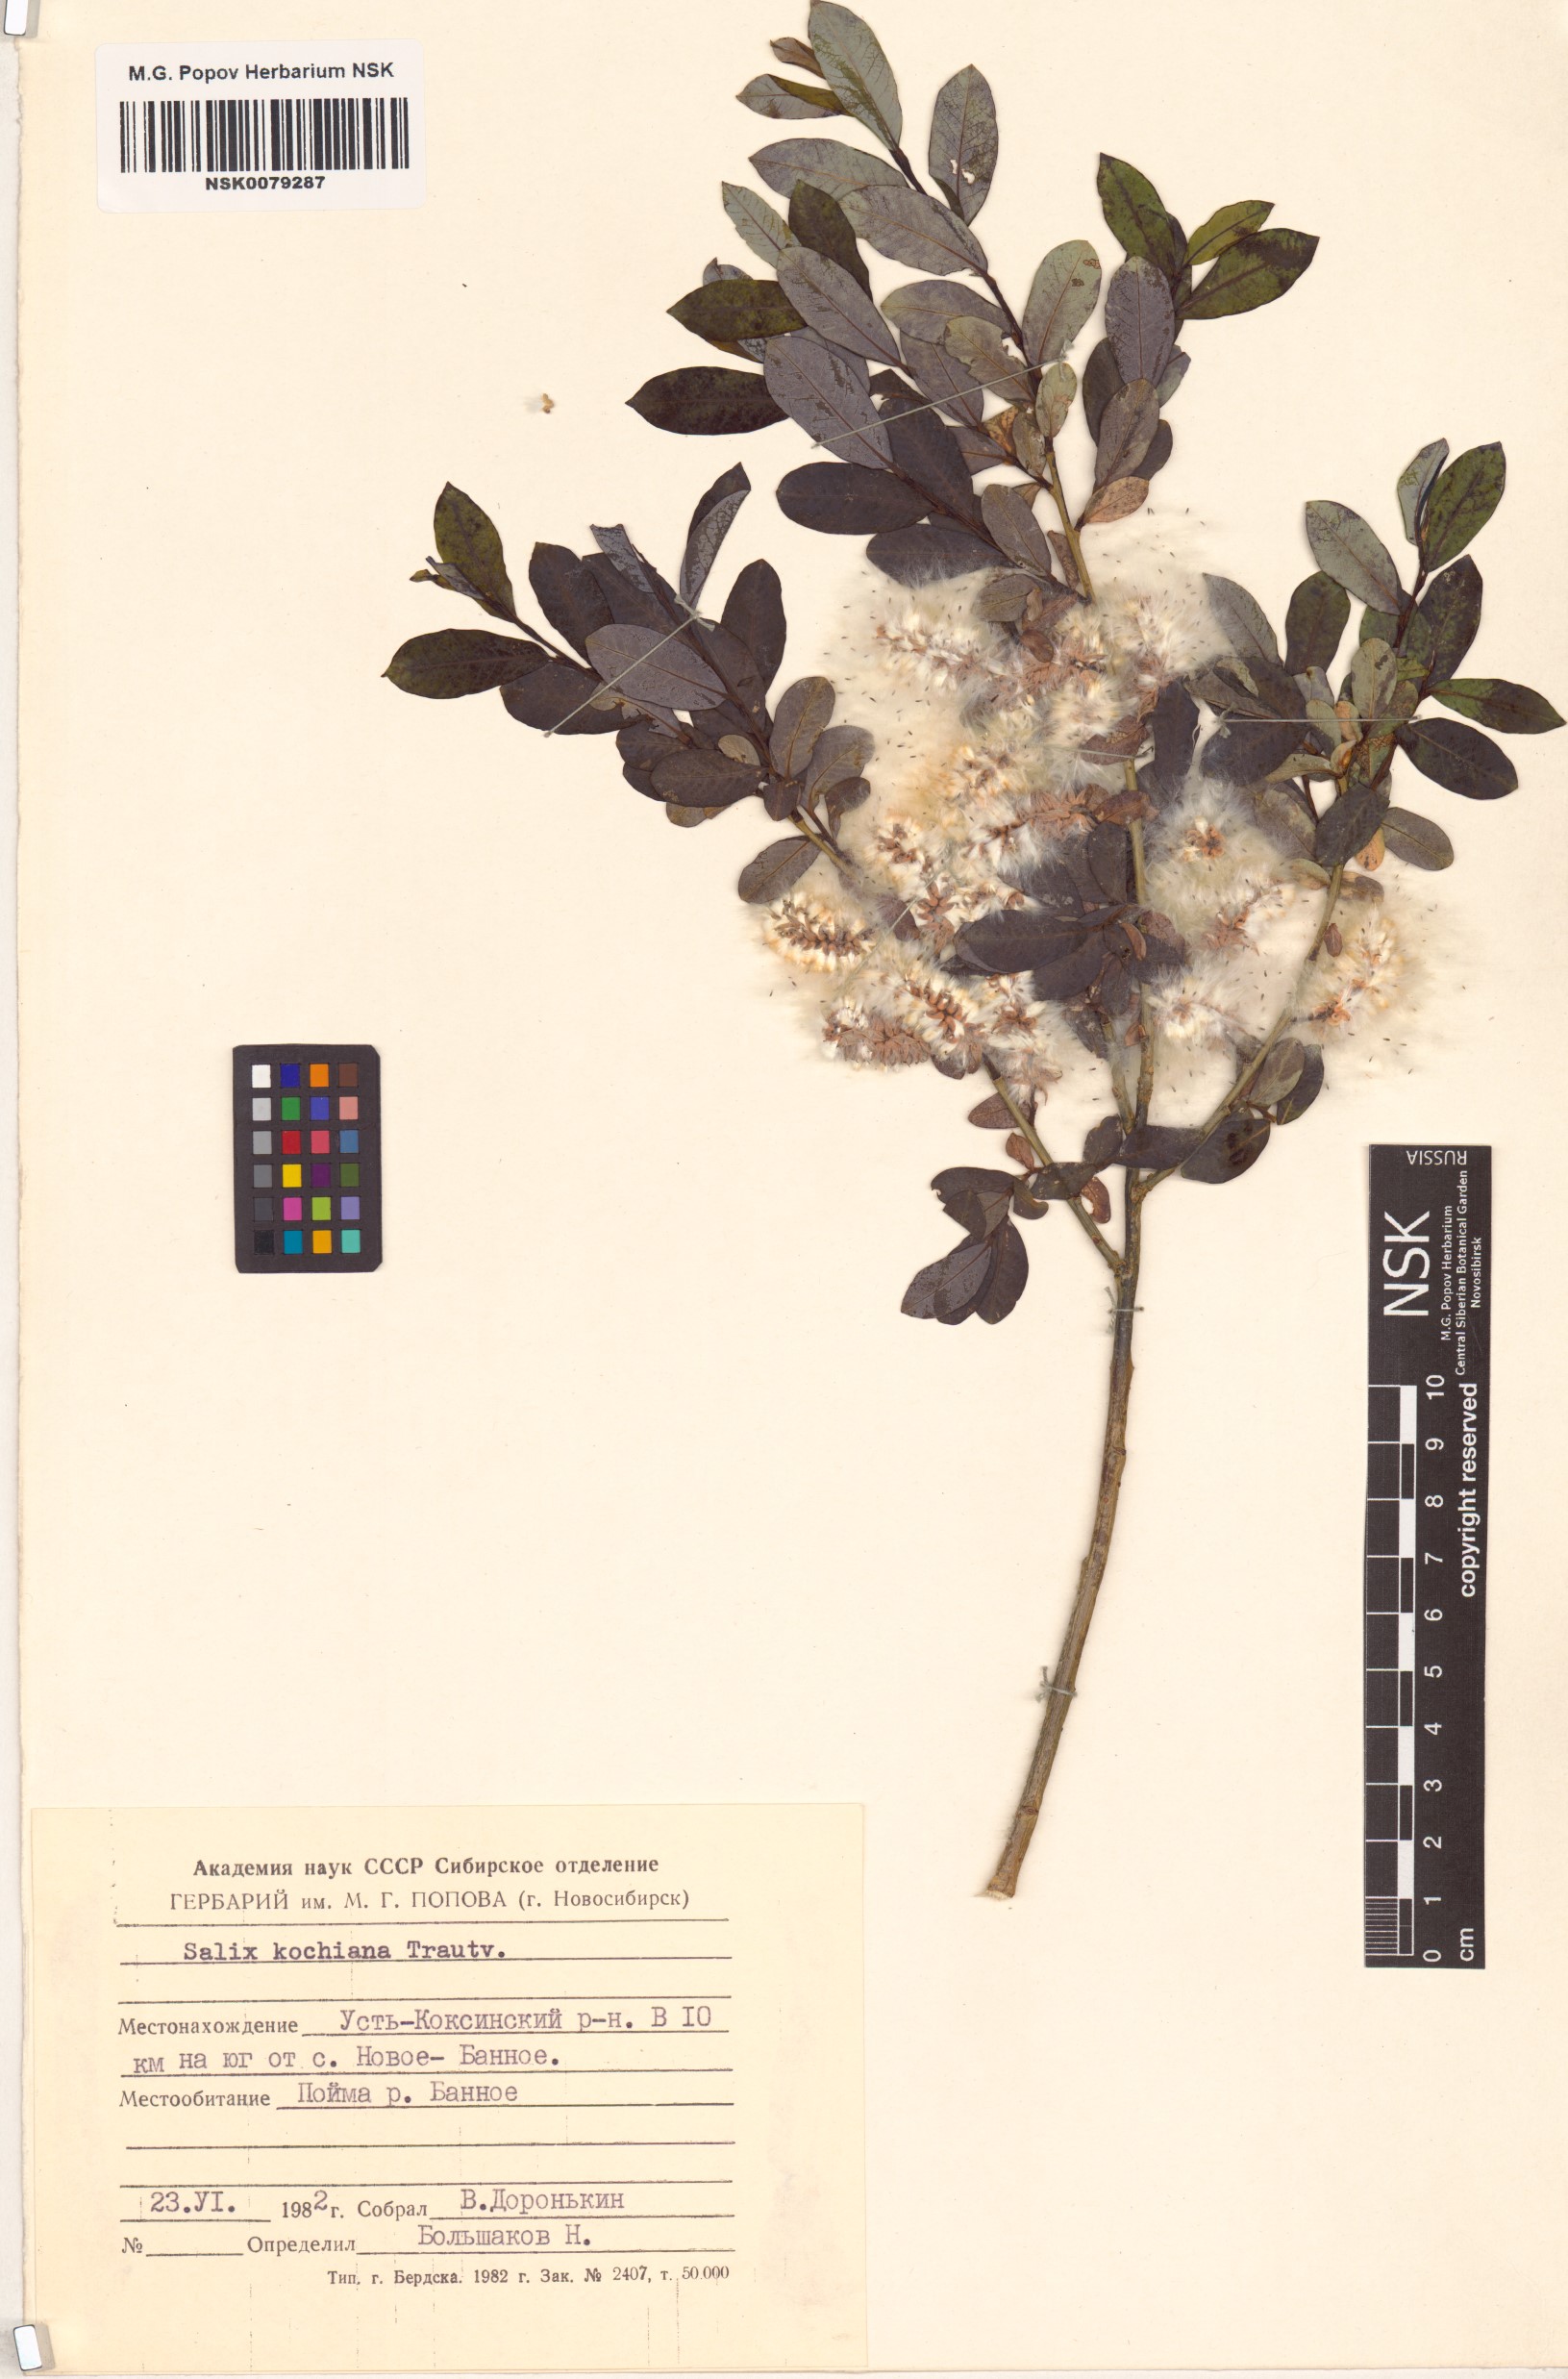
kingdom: Plantae
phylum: Tracheophyta
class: Magnoliopsida
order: Malpighiales
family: Salicaceae
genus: Salix
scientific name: Salix kochiana
